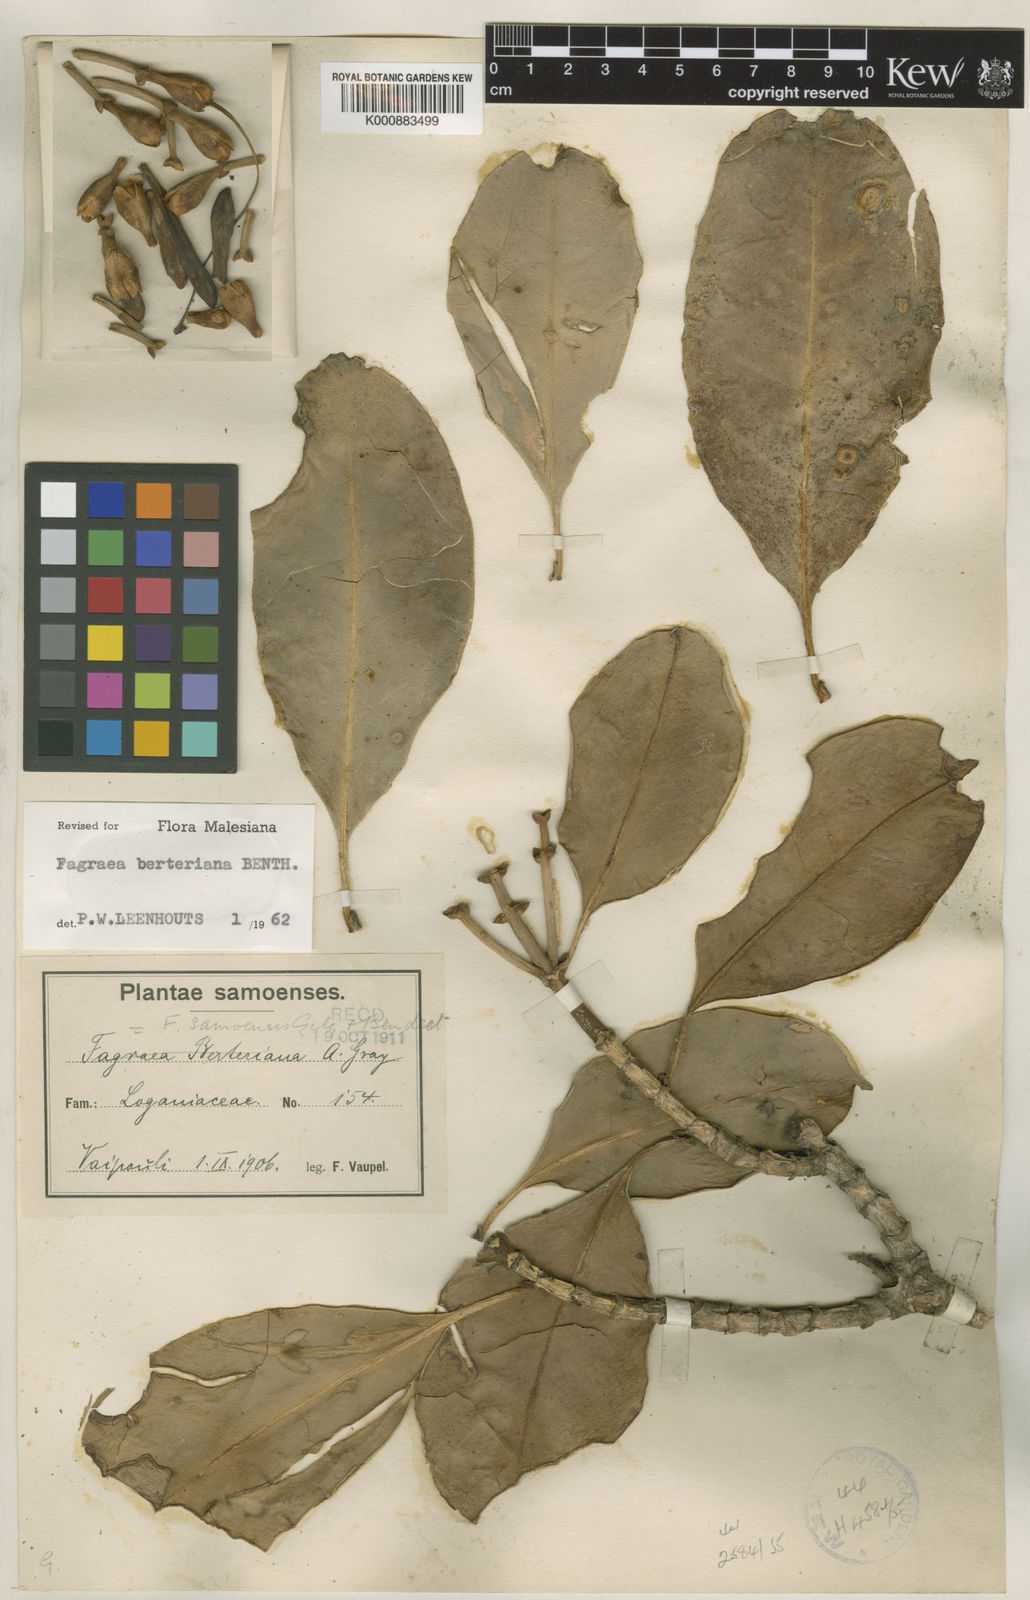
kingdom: Plantae
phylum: Tracheophyta
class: Magnoliopsida
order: Gentianales
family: Gentianaceae
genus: Fagraea
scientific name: Fagraea
